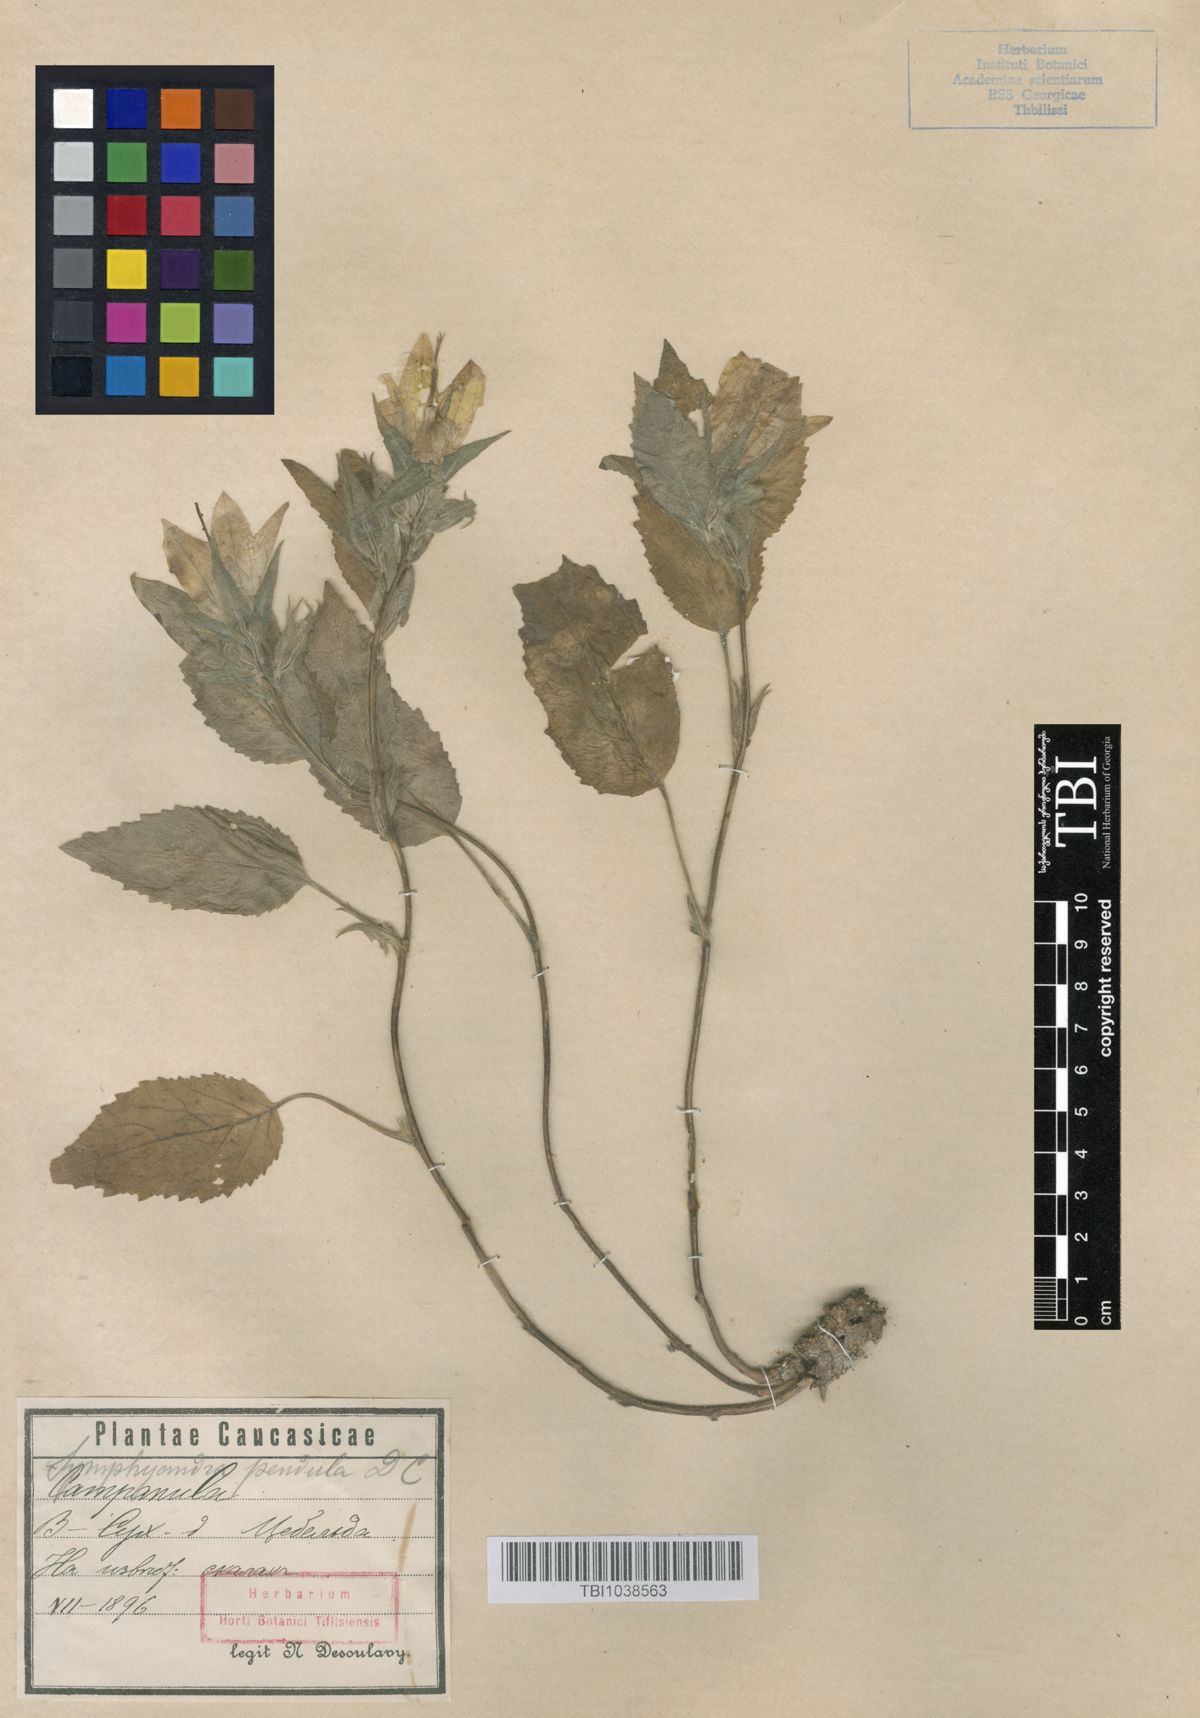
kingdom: Plantae
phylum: Tracheophyta
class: Magnoliopsida
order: Asterales
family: Campanulaceae
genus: Campanula
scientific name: Campanula pendula
